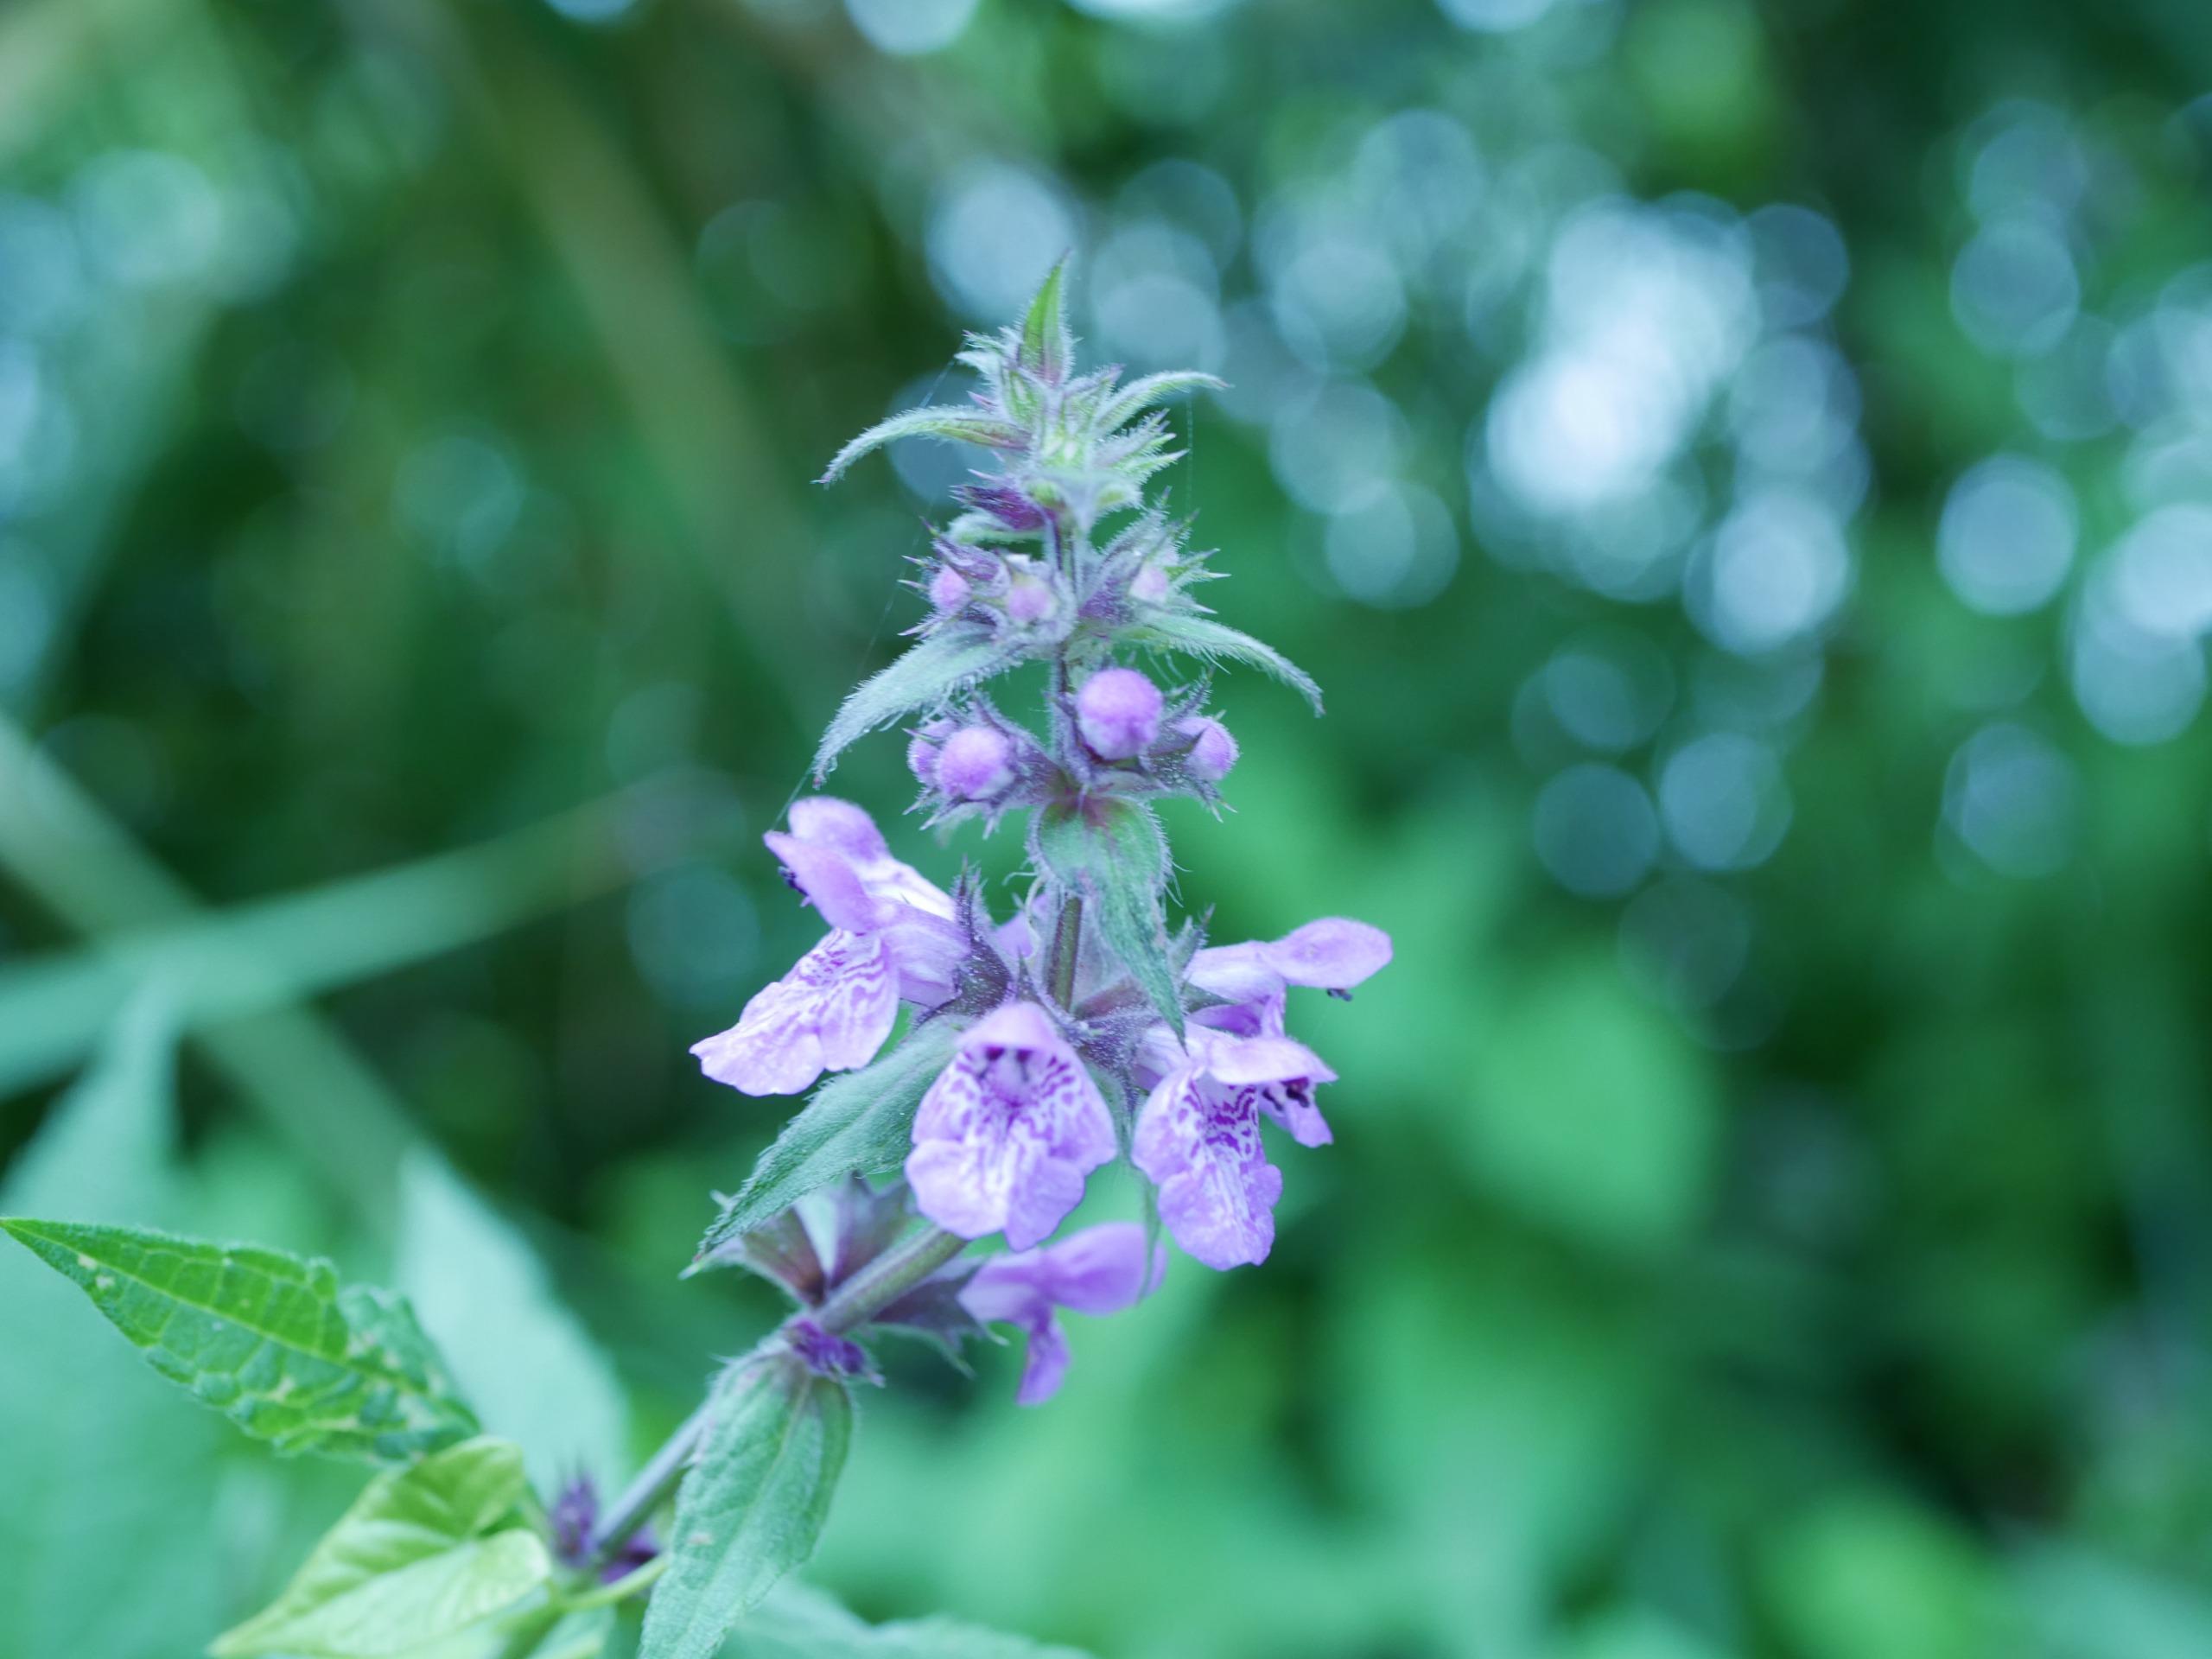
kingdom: Plantae
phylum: Tracheophyta
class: Magnoliopsida
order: Lamiales
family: Lamiaceae
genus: Stachys
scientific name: Stachys palustris
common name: Kær-galtetand
